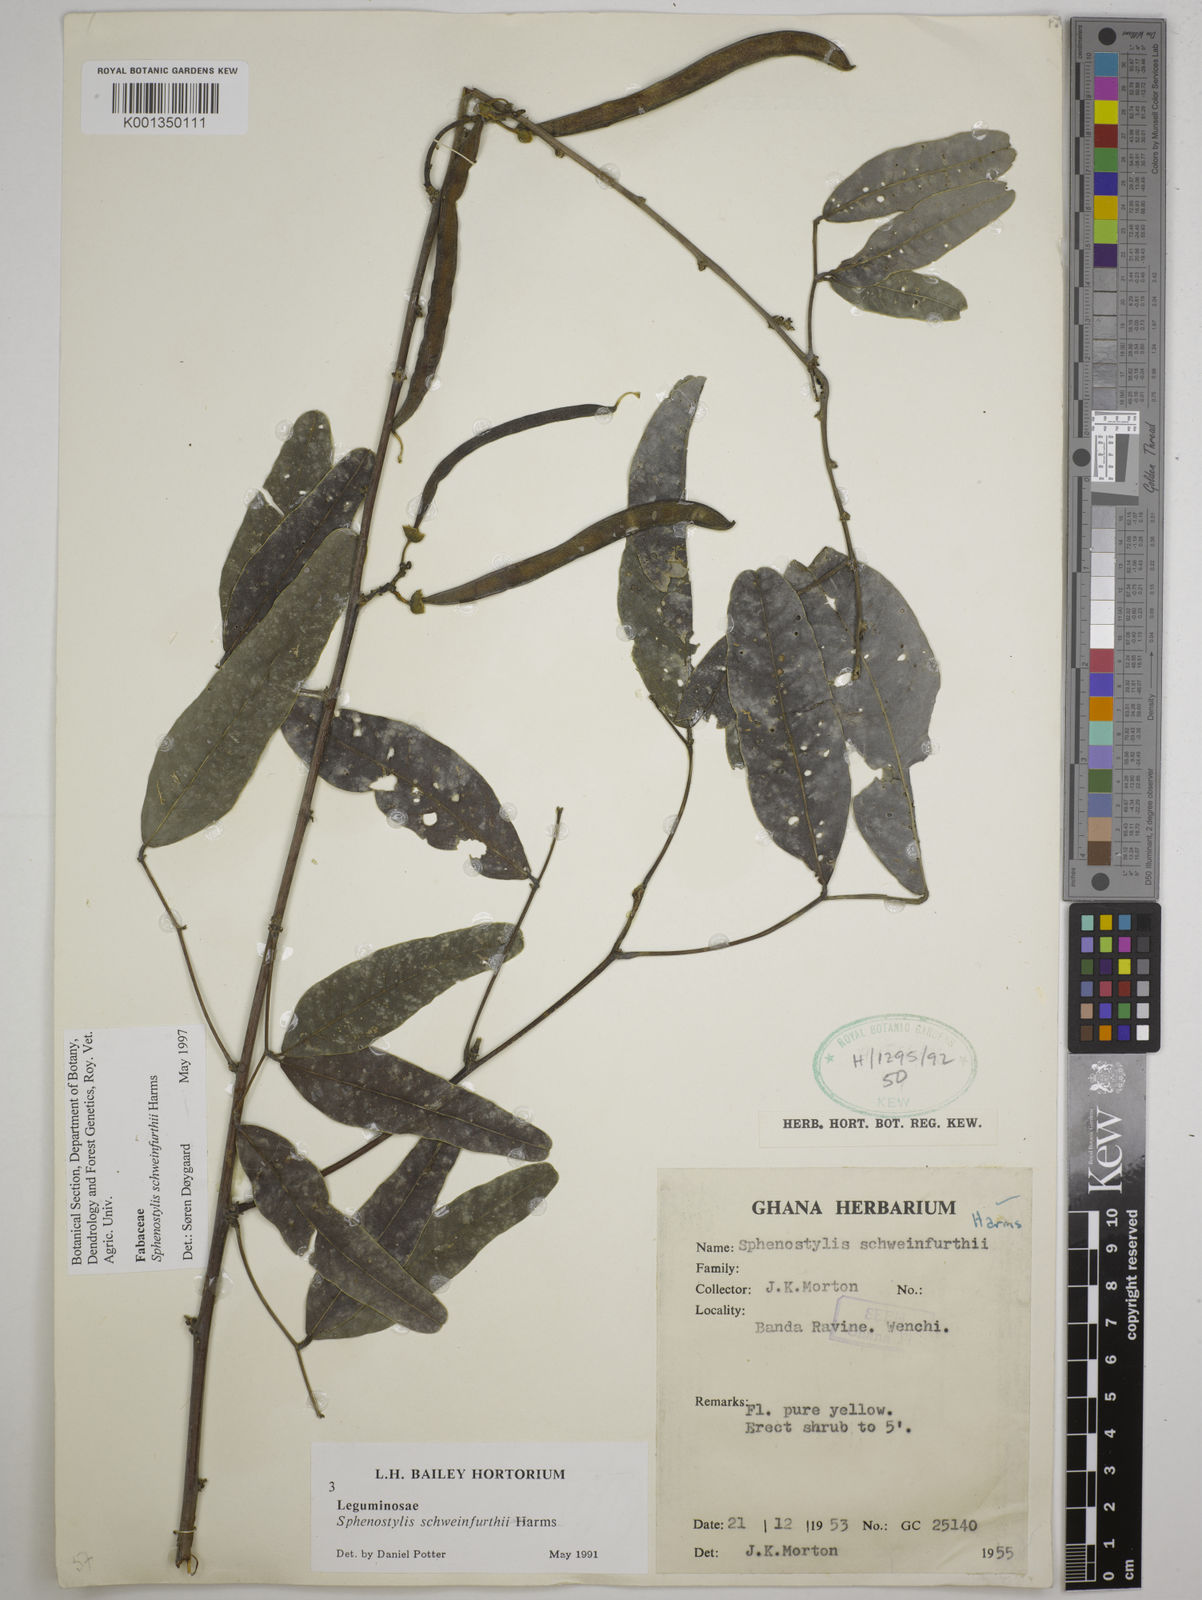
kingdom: Plantae
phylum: Tracheophyta
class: Magnoliopsida
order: Fabales
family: Fabaceae
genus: Sphenostylis
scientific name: Sphenostylis schweinfurthii
